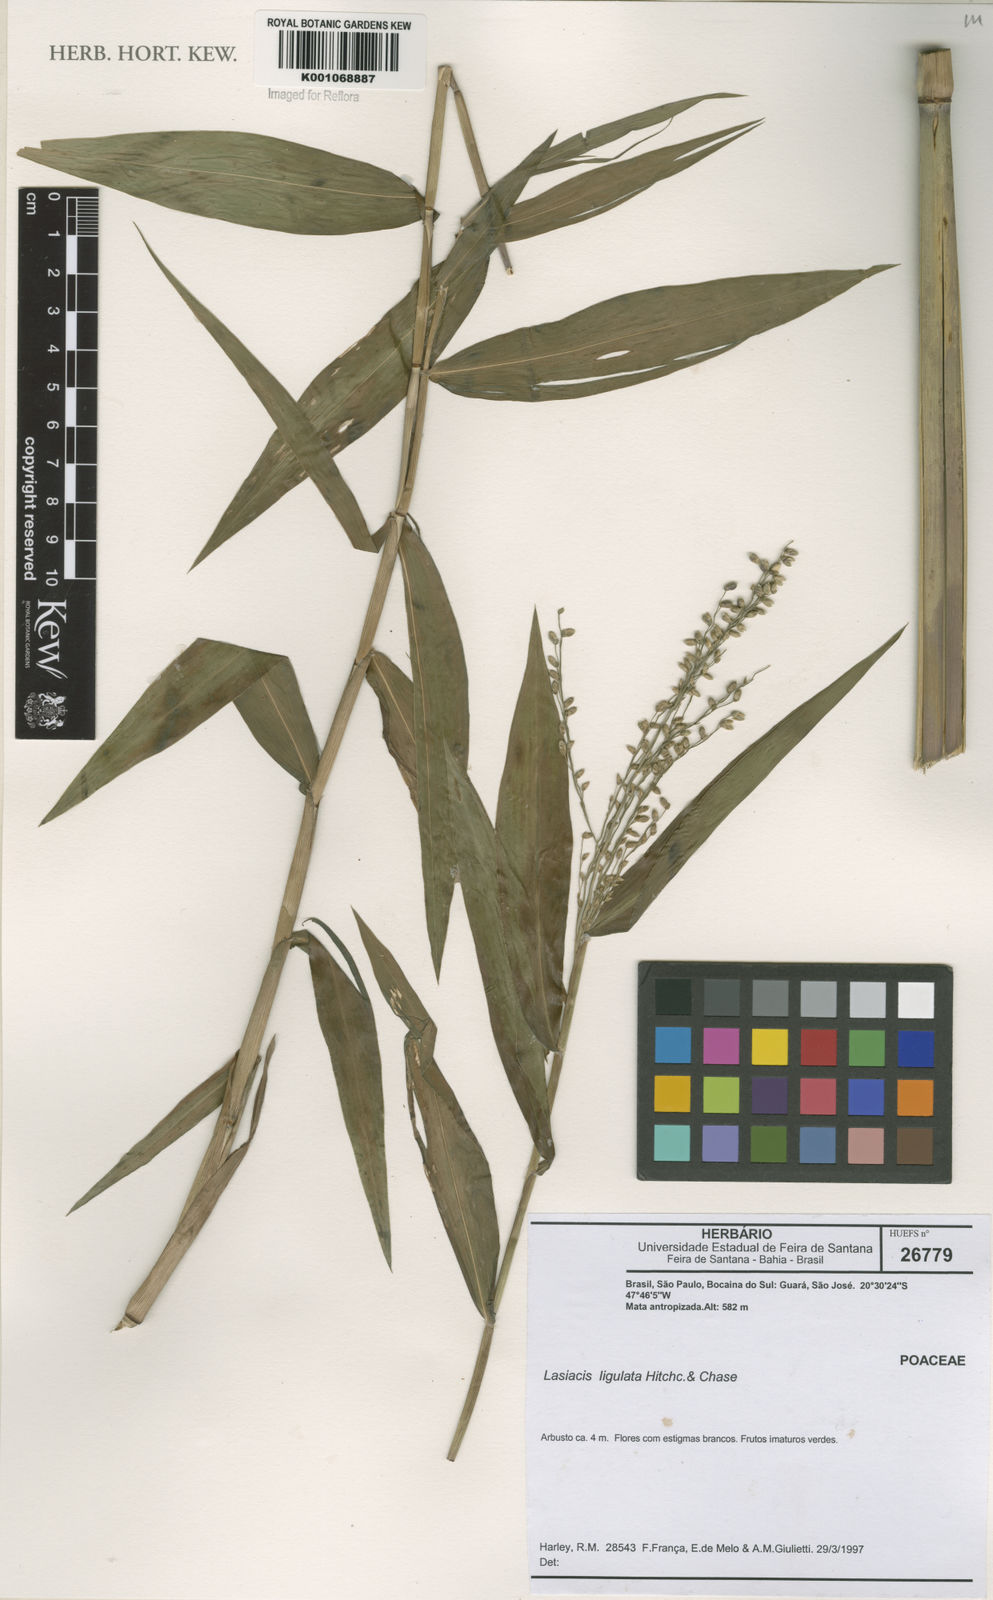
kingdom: Plantae
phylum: Tracheophyta
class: Liliopsida
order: Poales
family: Poaceae
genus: Lasiacis
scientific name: Lasiacis ligulata
